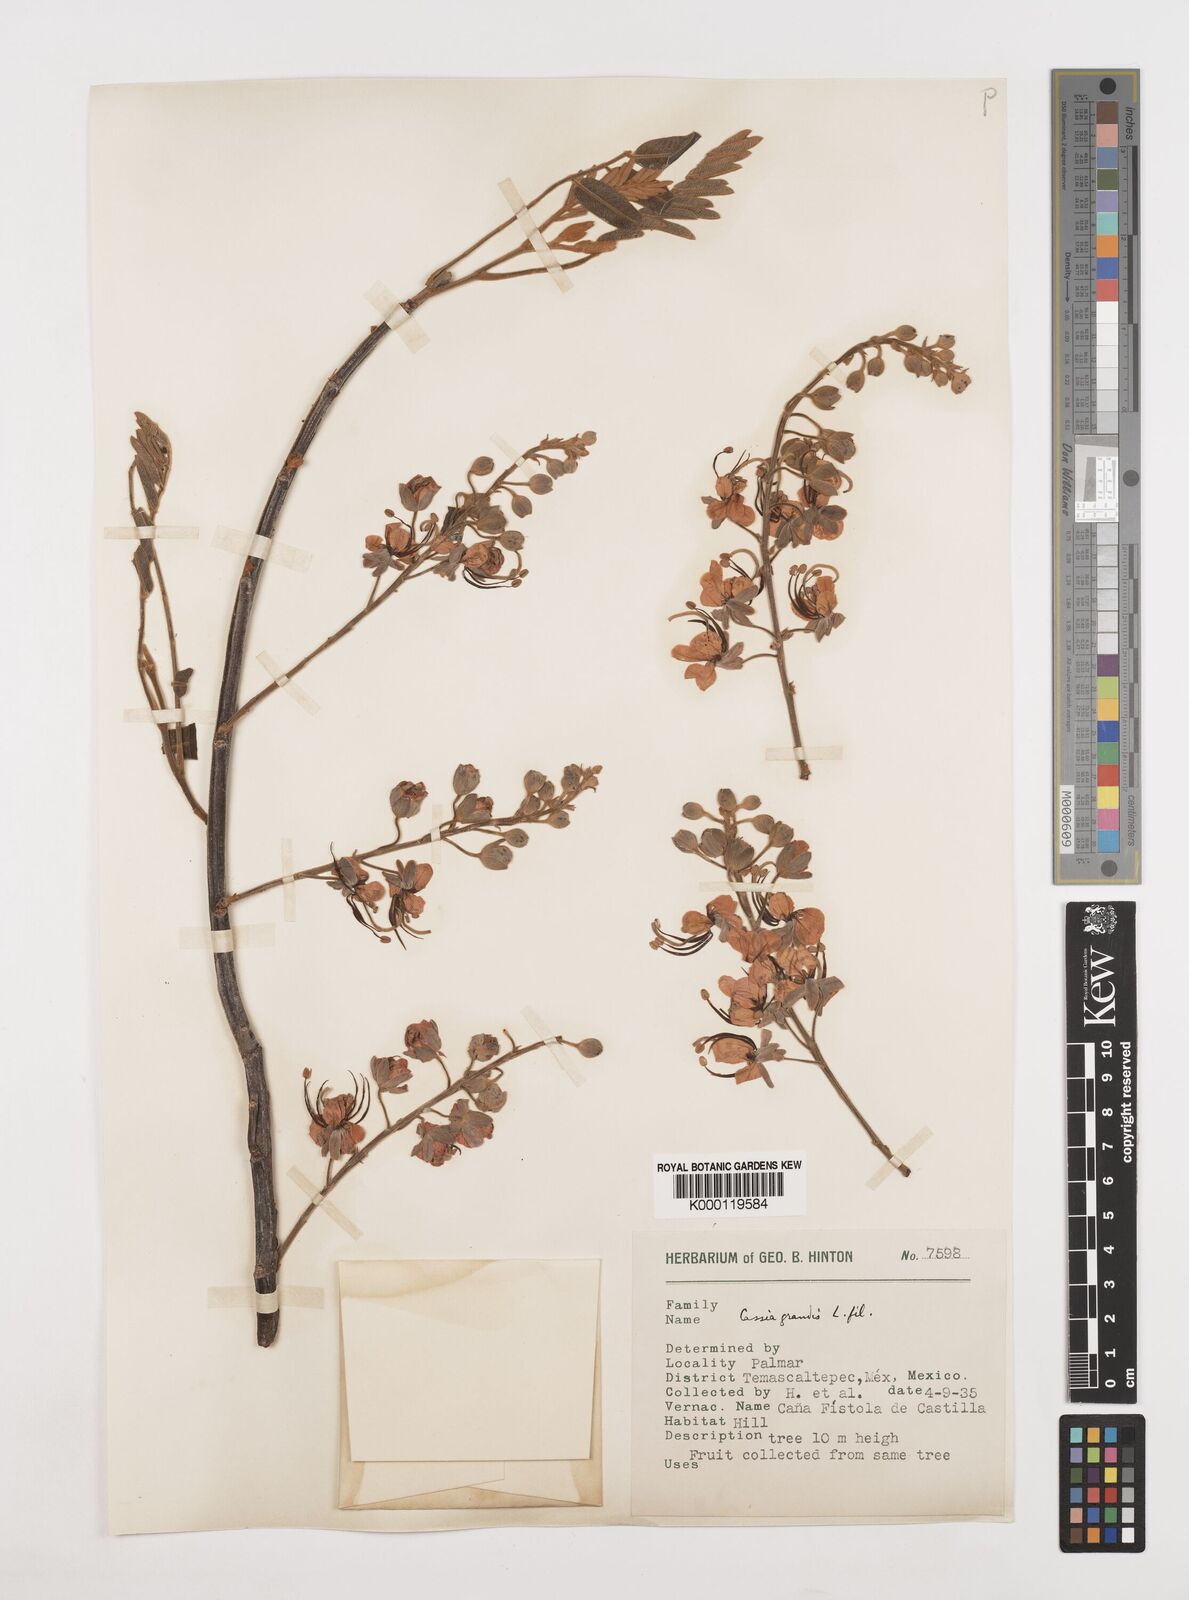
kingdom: Plantae
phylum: Tracheophyta
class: Magnoliopsida
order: Fabales
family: Fabaceae
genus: Cassia
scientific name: Cassia grandis
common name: Appleblossom cassia
